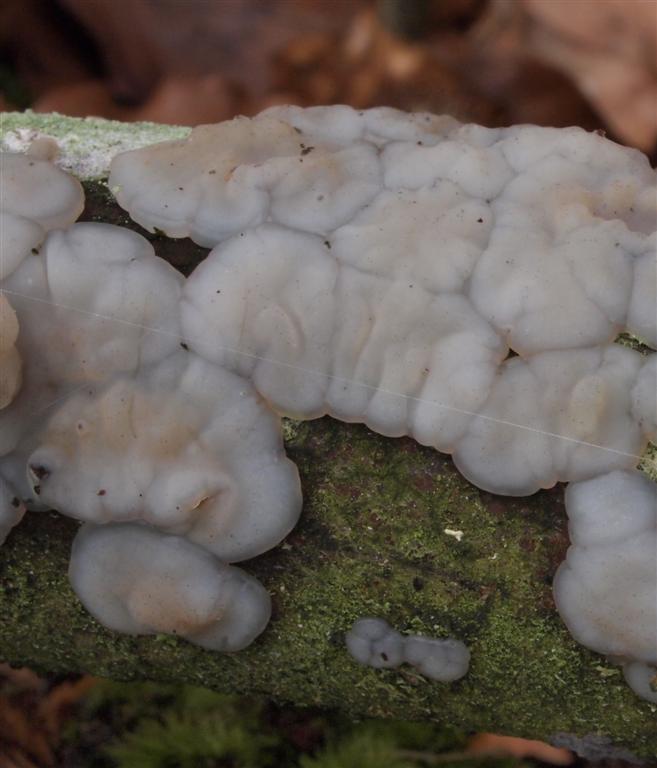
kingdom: Fungi
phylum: Basidiomycota
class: Agaricomycetes
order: Auriculariales
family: Auriculariaceae
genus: Exidia
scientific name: Exidia thuretiana
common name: hvidlig bævretop
